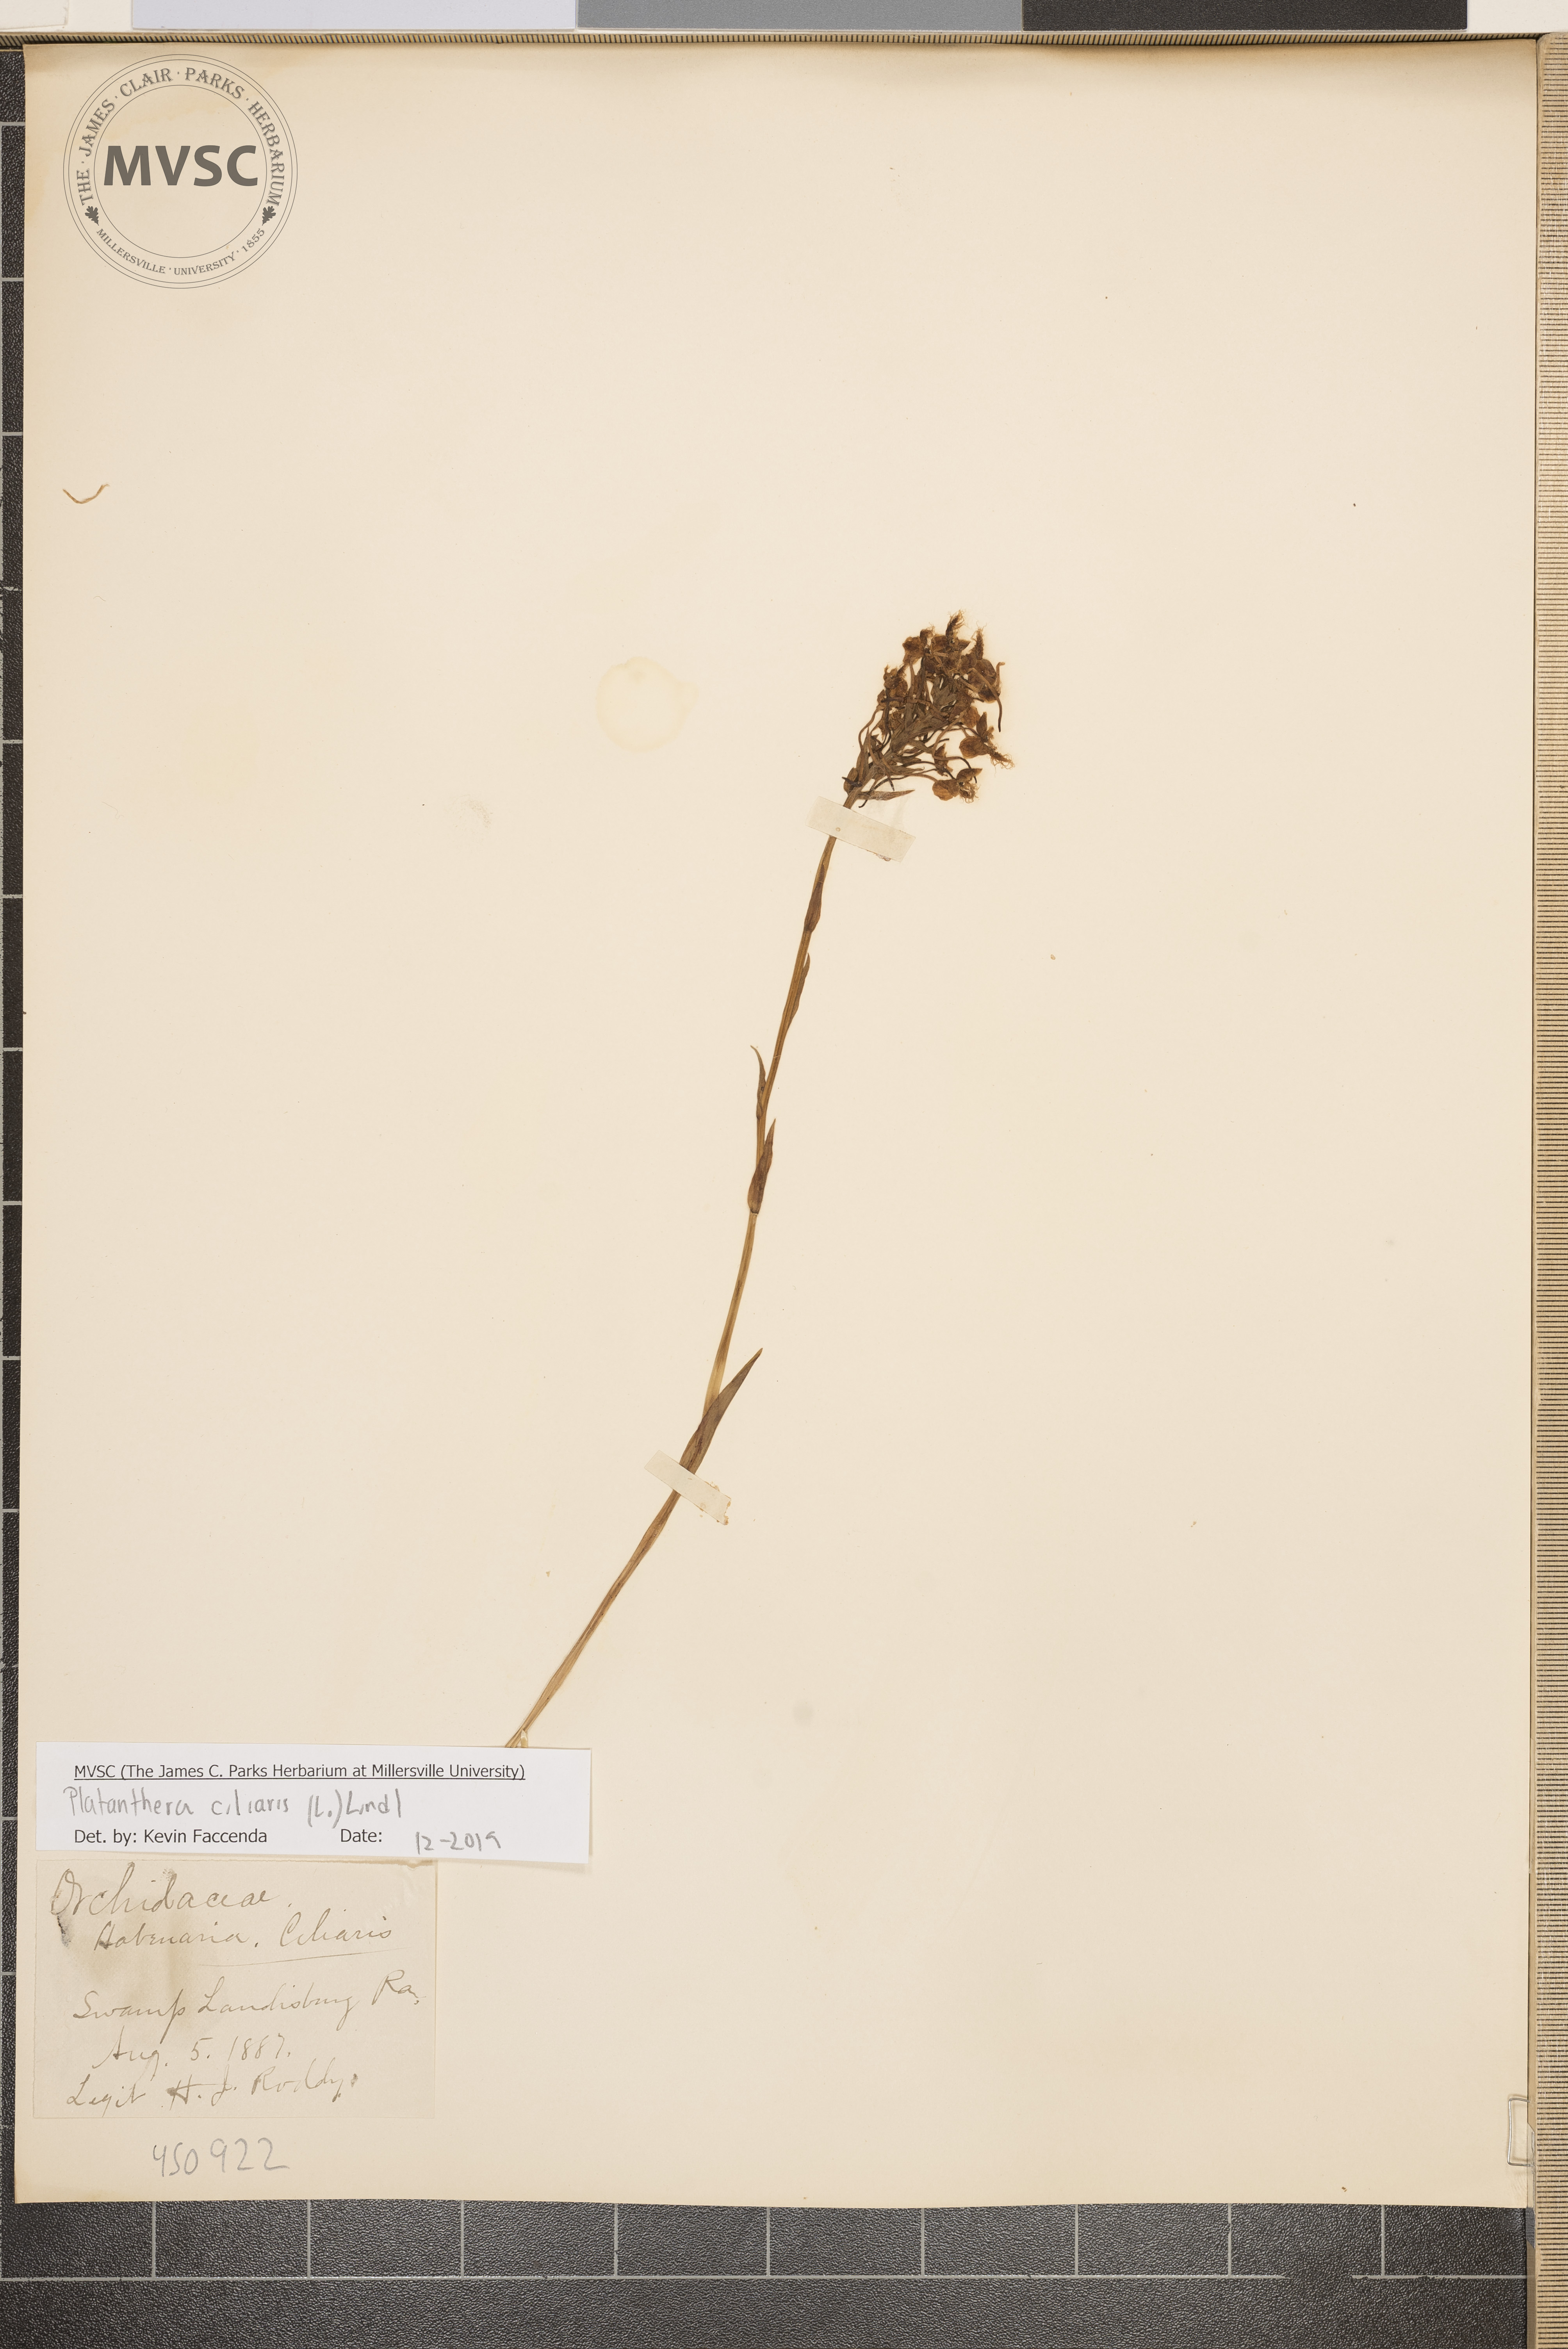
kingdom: Plantae
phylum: Tracheophyta
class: Liliopsida
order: Asparagales
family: Orchidaceae
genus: Platanthera
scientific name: Platanthera ciliaris
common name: Yellow fringed orchid
